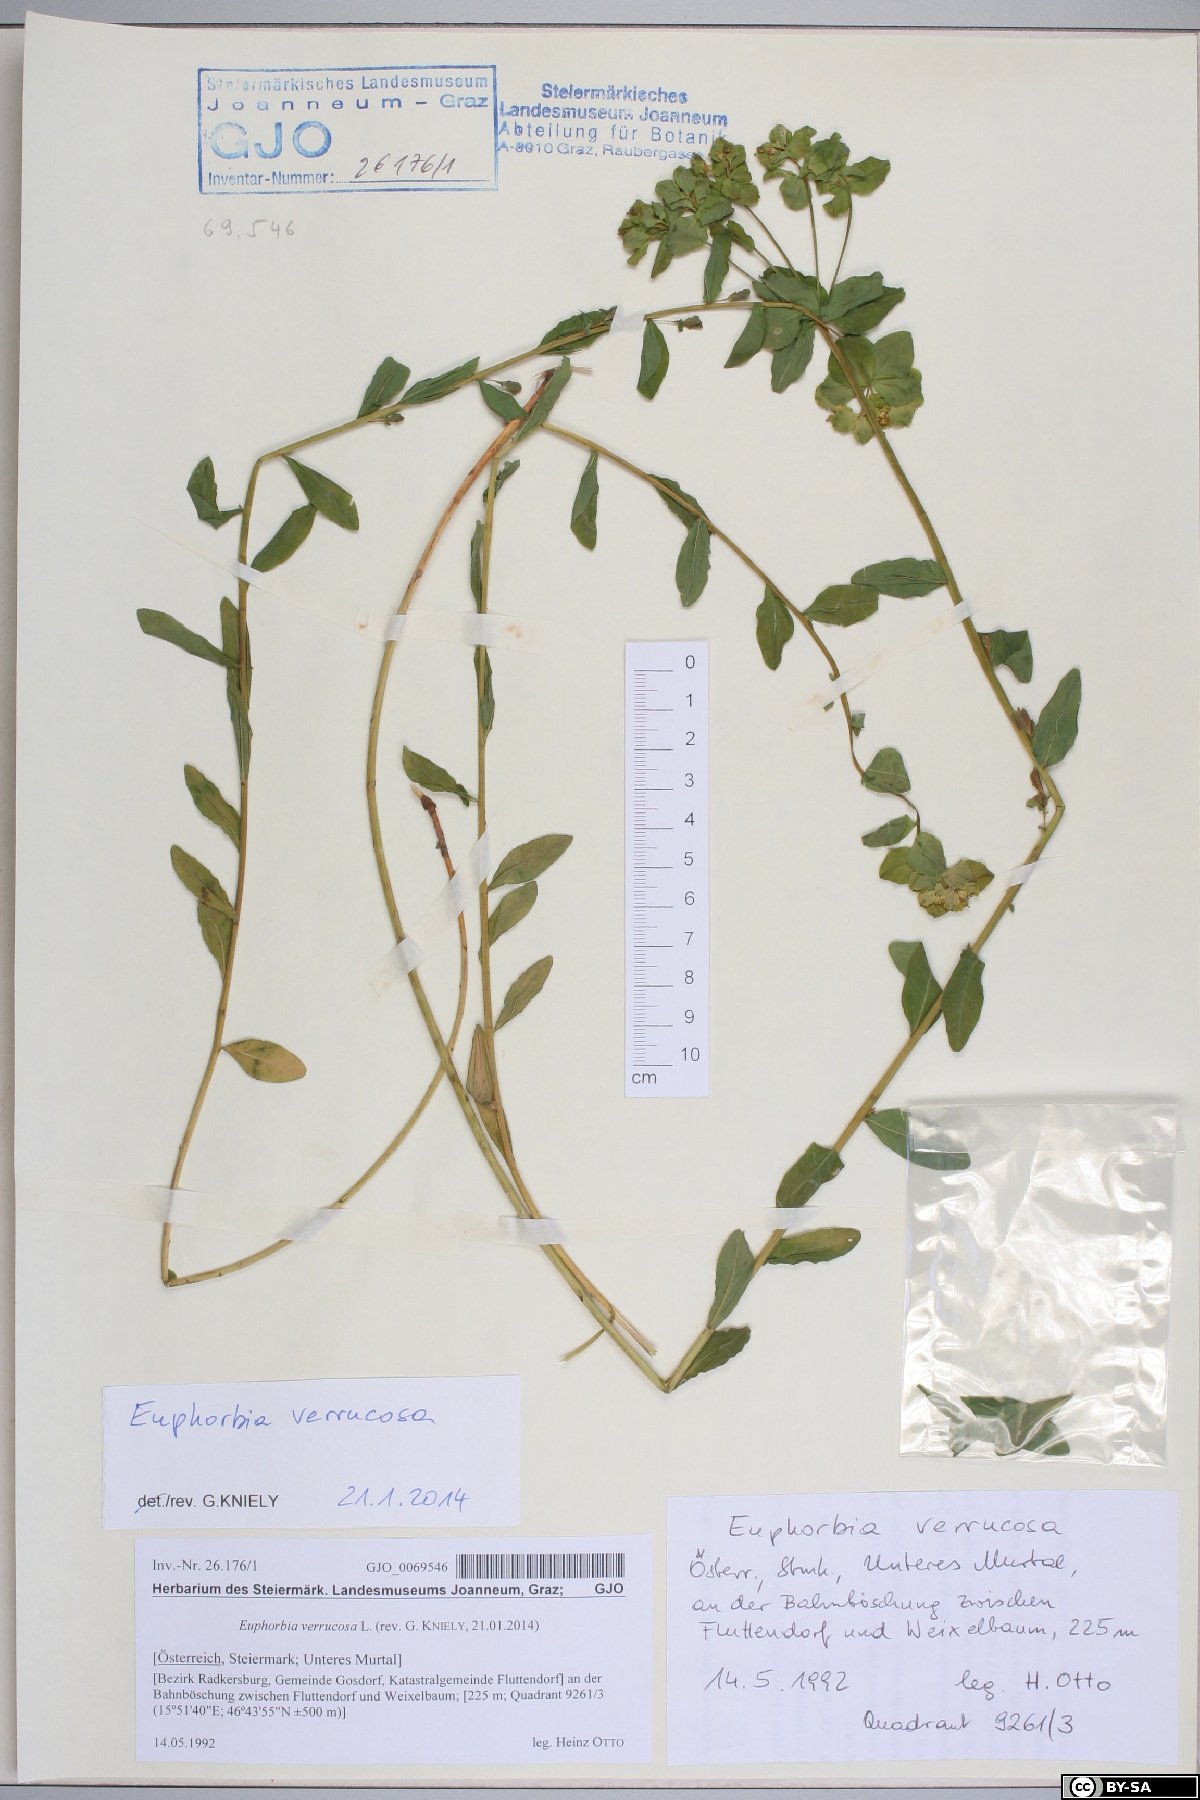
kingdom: Plantae
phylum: Tracheophyta
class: Magnoliopsida
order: Malpighiales
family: Euphorbiaceae
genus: Euphorbia
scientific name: Euphorbia verrucosa
